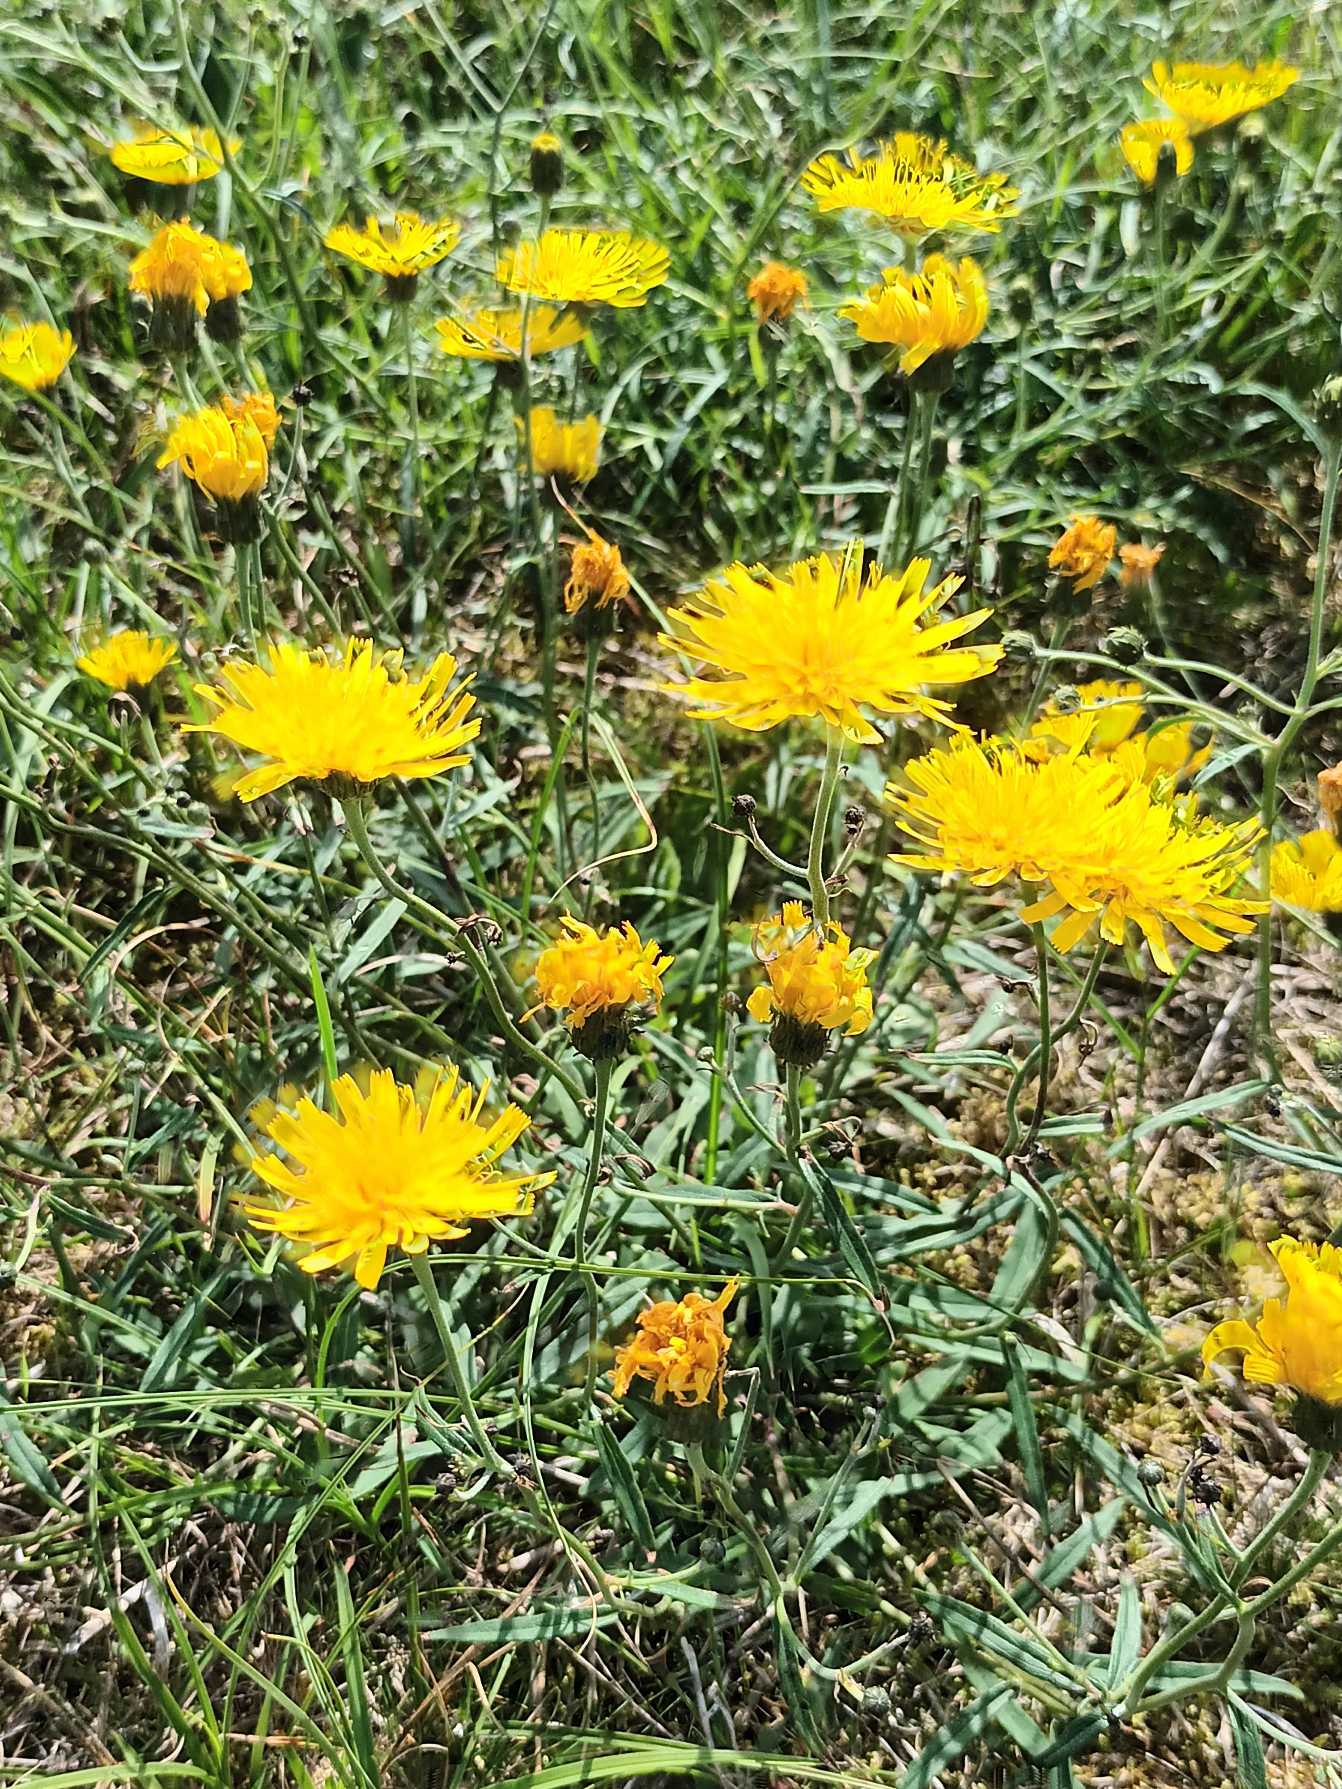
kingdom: Plantae
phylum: Tracheophyta
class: Magnoliopsida
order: Asterales
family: Asteraceae
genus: Hieracium
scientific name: Hieracium umbellatum
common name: Smalbladet høgeurt
